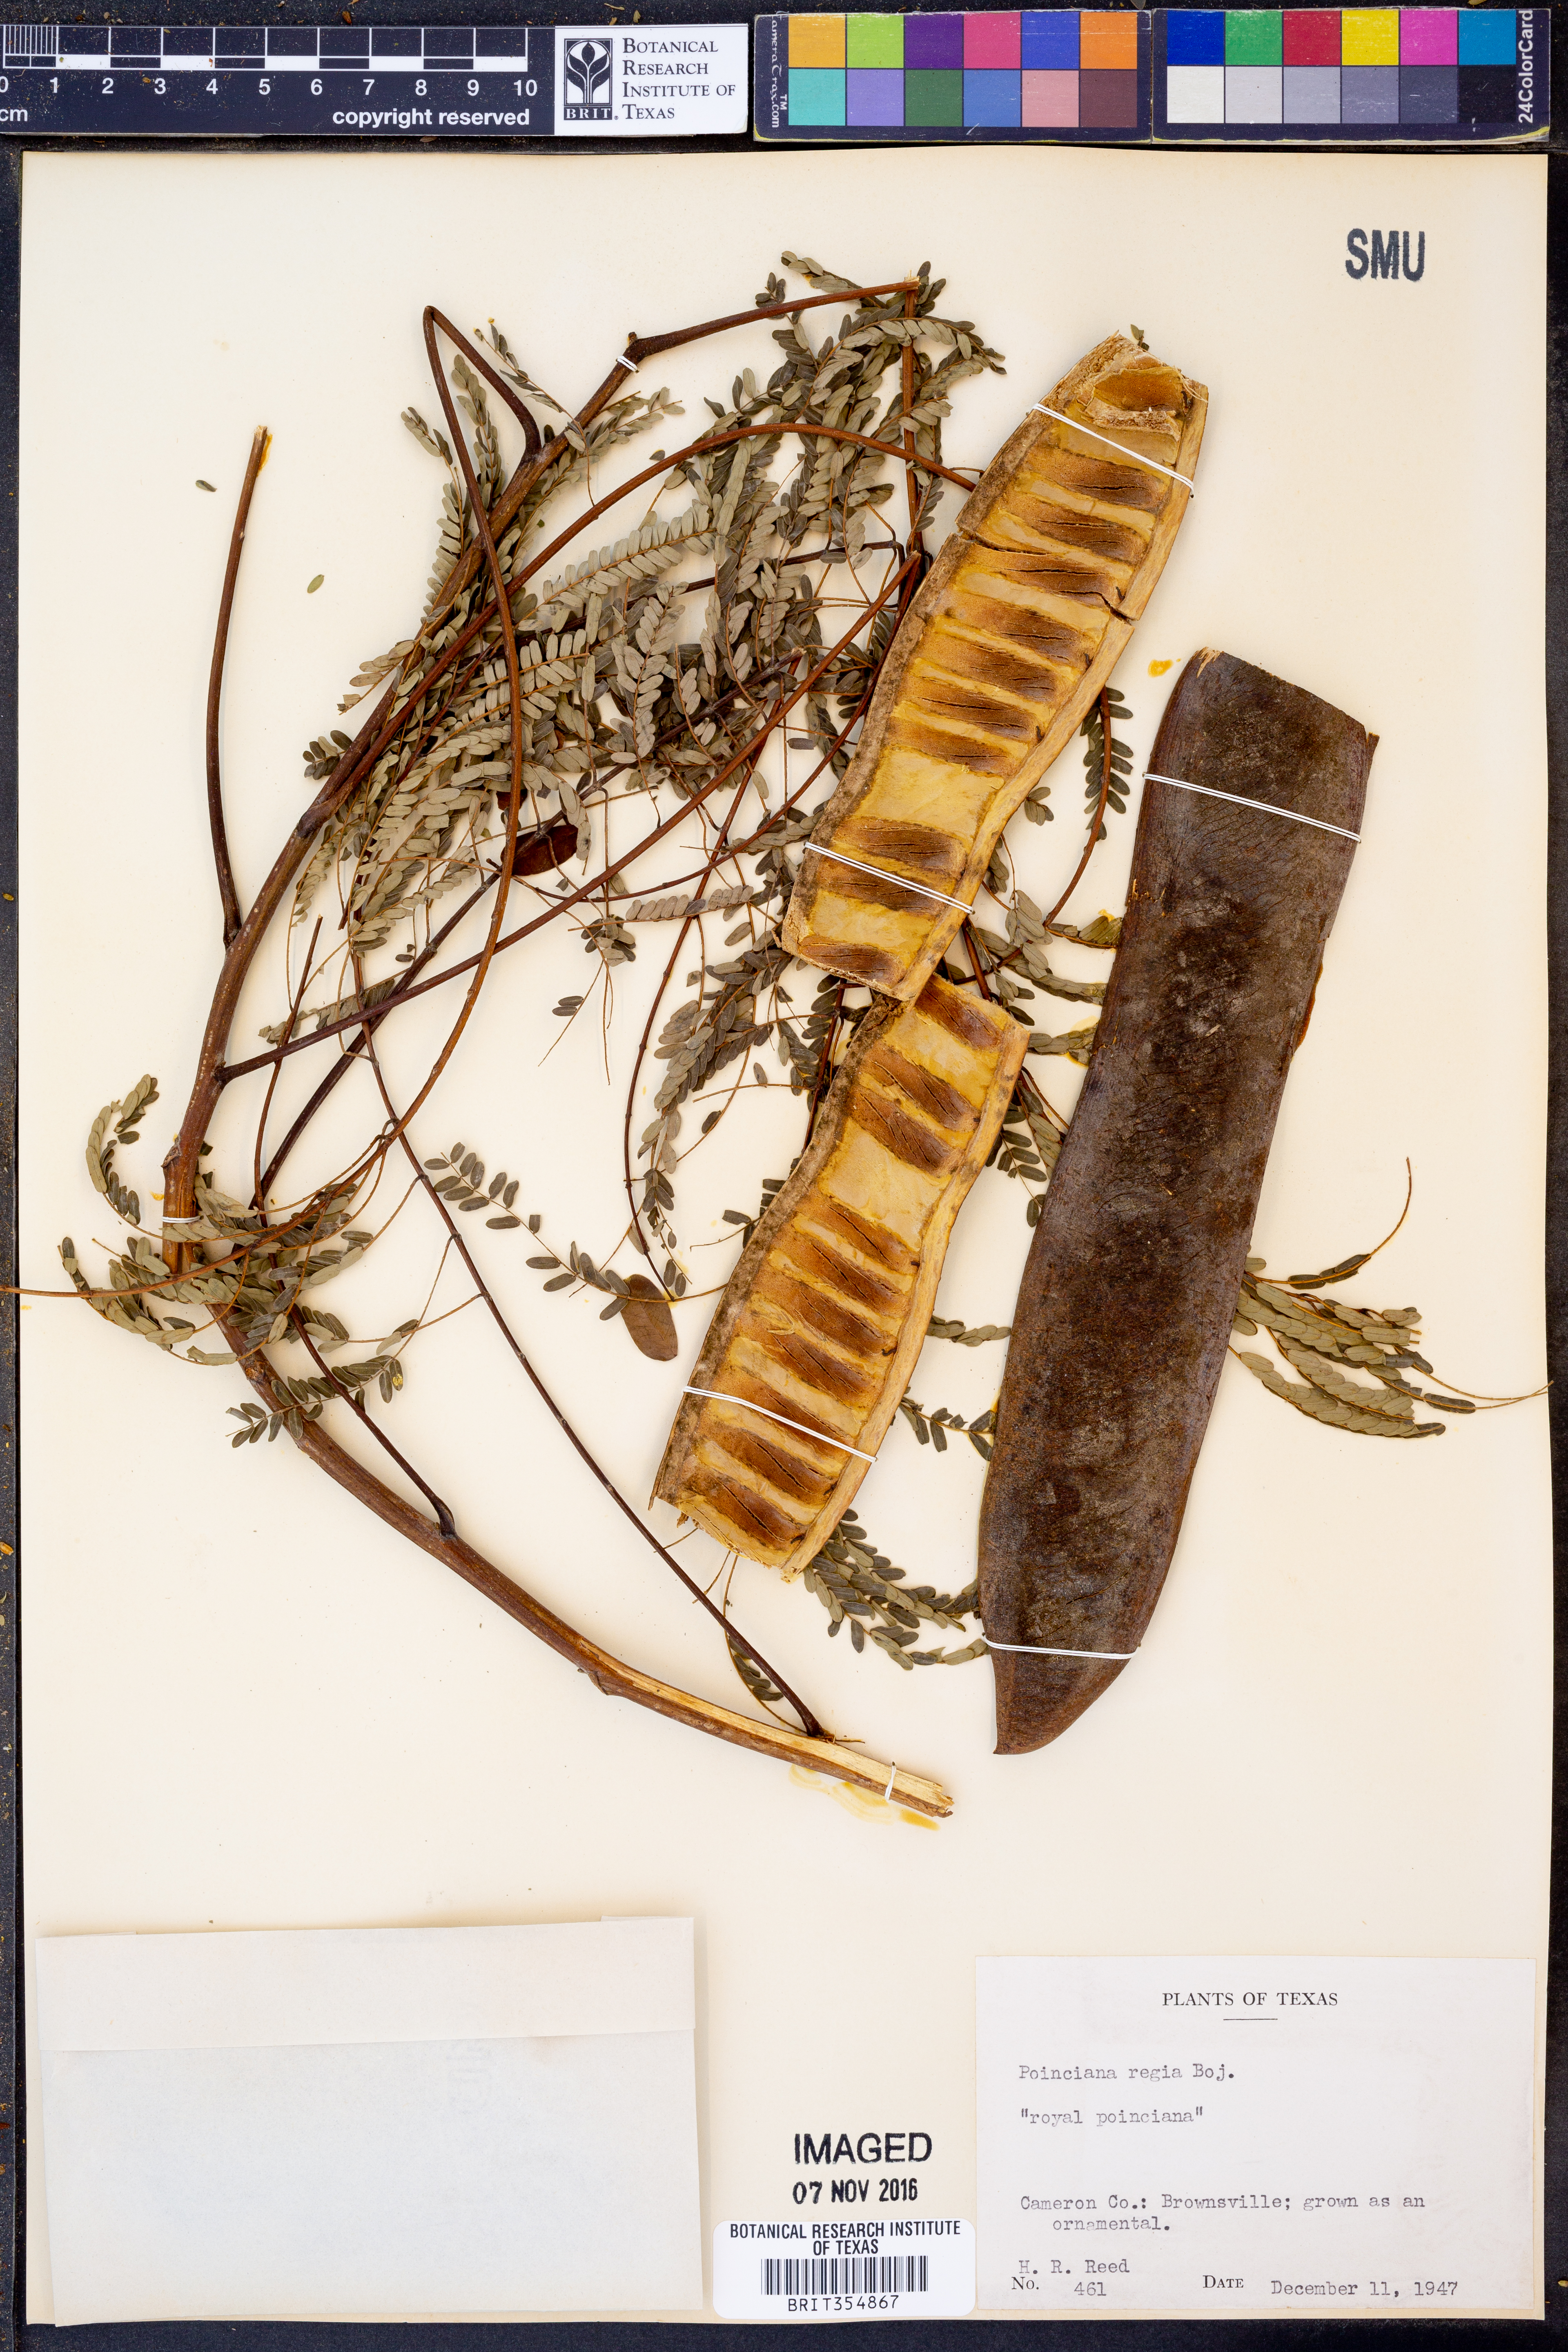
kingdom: Plantae
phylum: Tracheophyta
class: Magnoliopsida
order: Fabales
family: Fabaceae
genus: Delonix
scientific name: Delonix regia
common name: Royal poinciana
